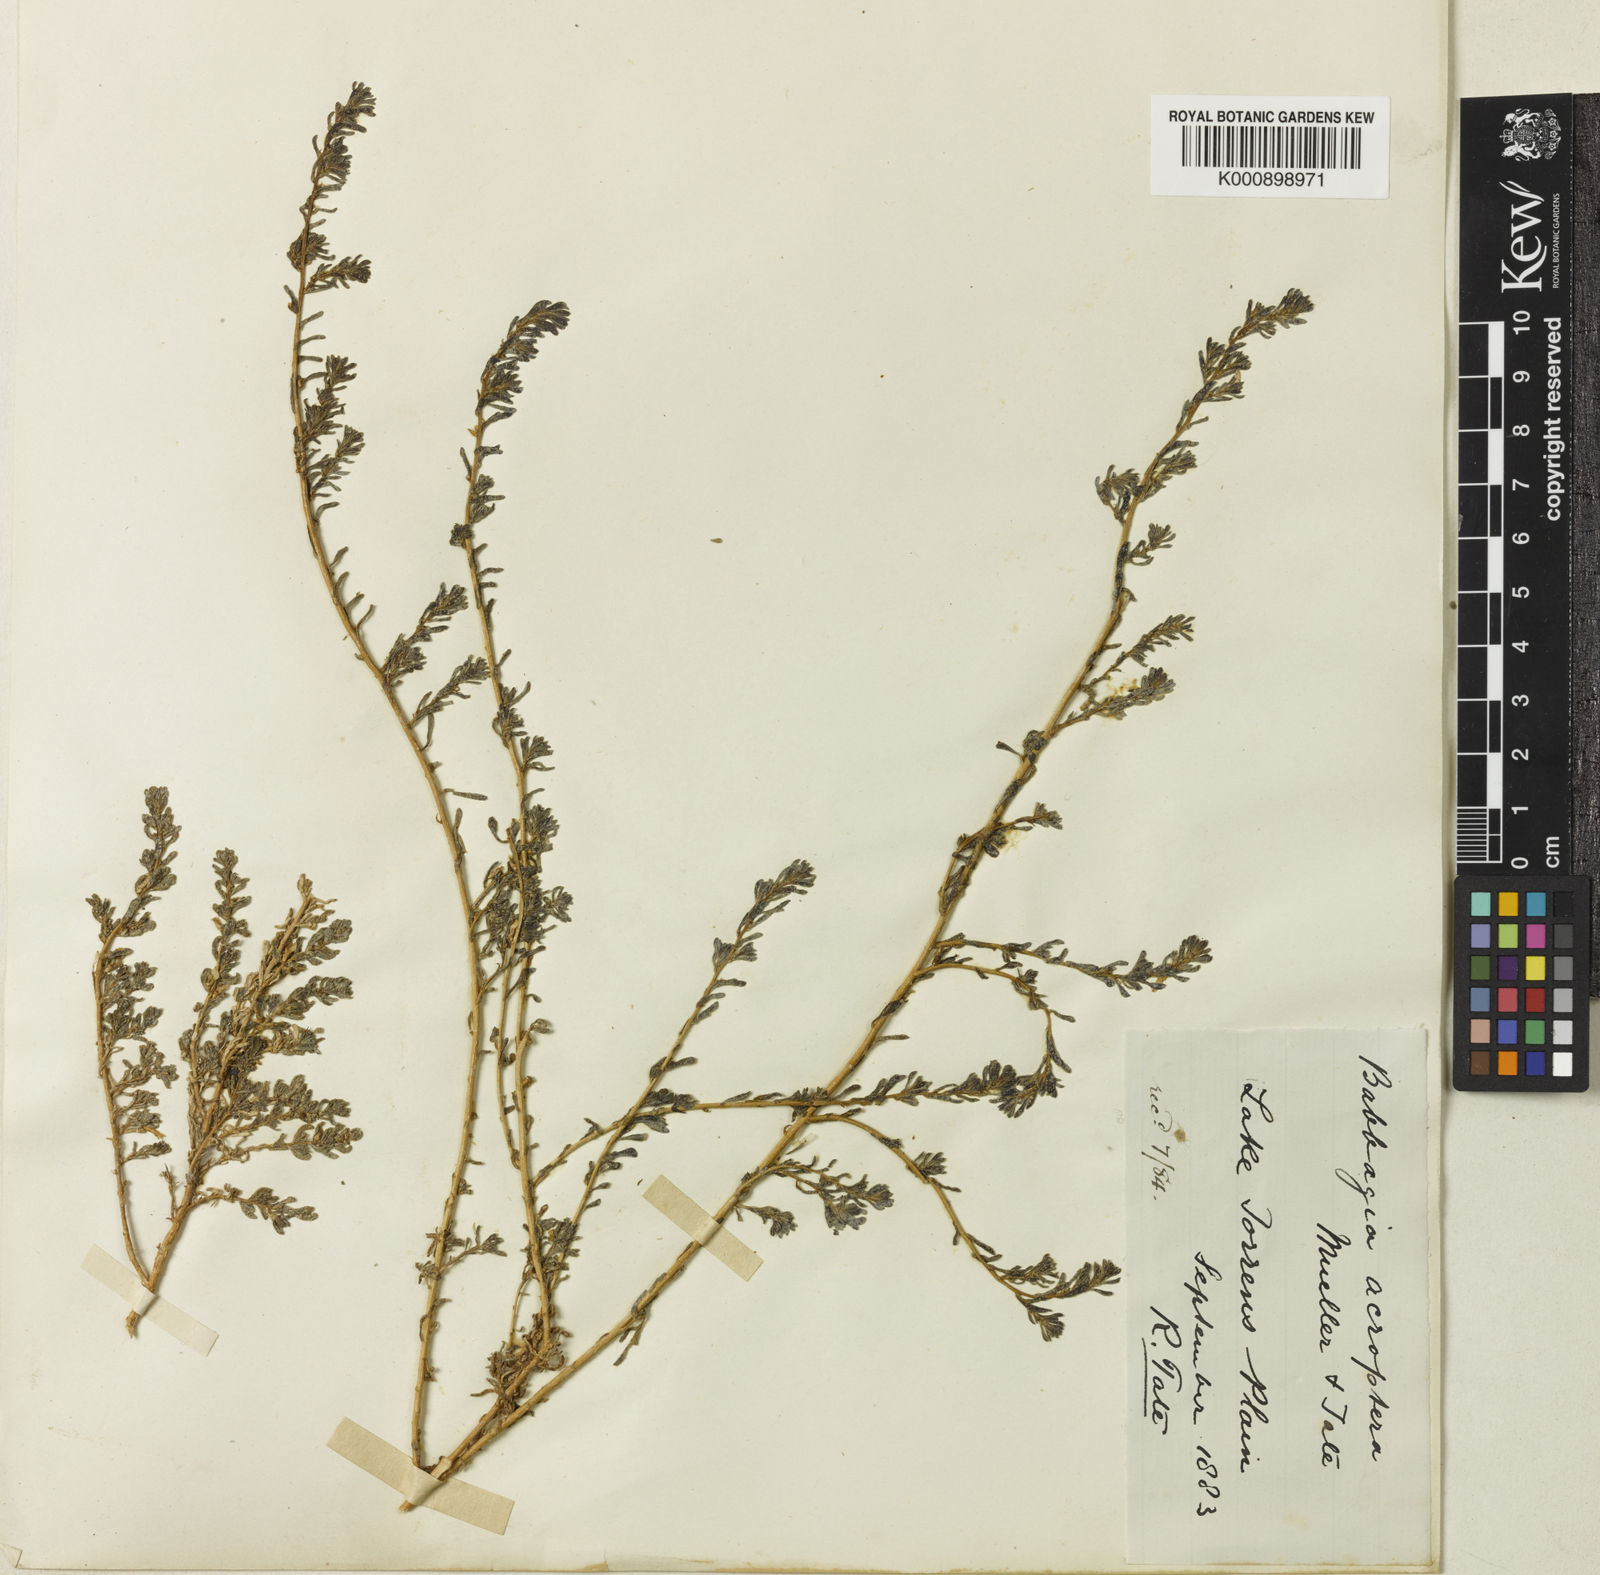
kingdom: Plantae
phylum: Tracheophyta
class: Magnoliopsida
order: Caryophyllales
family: Amaranthaceae
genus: Osteocarpum
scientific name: Osteocarpum acropterum
